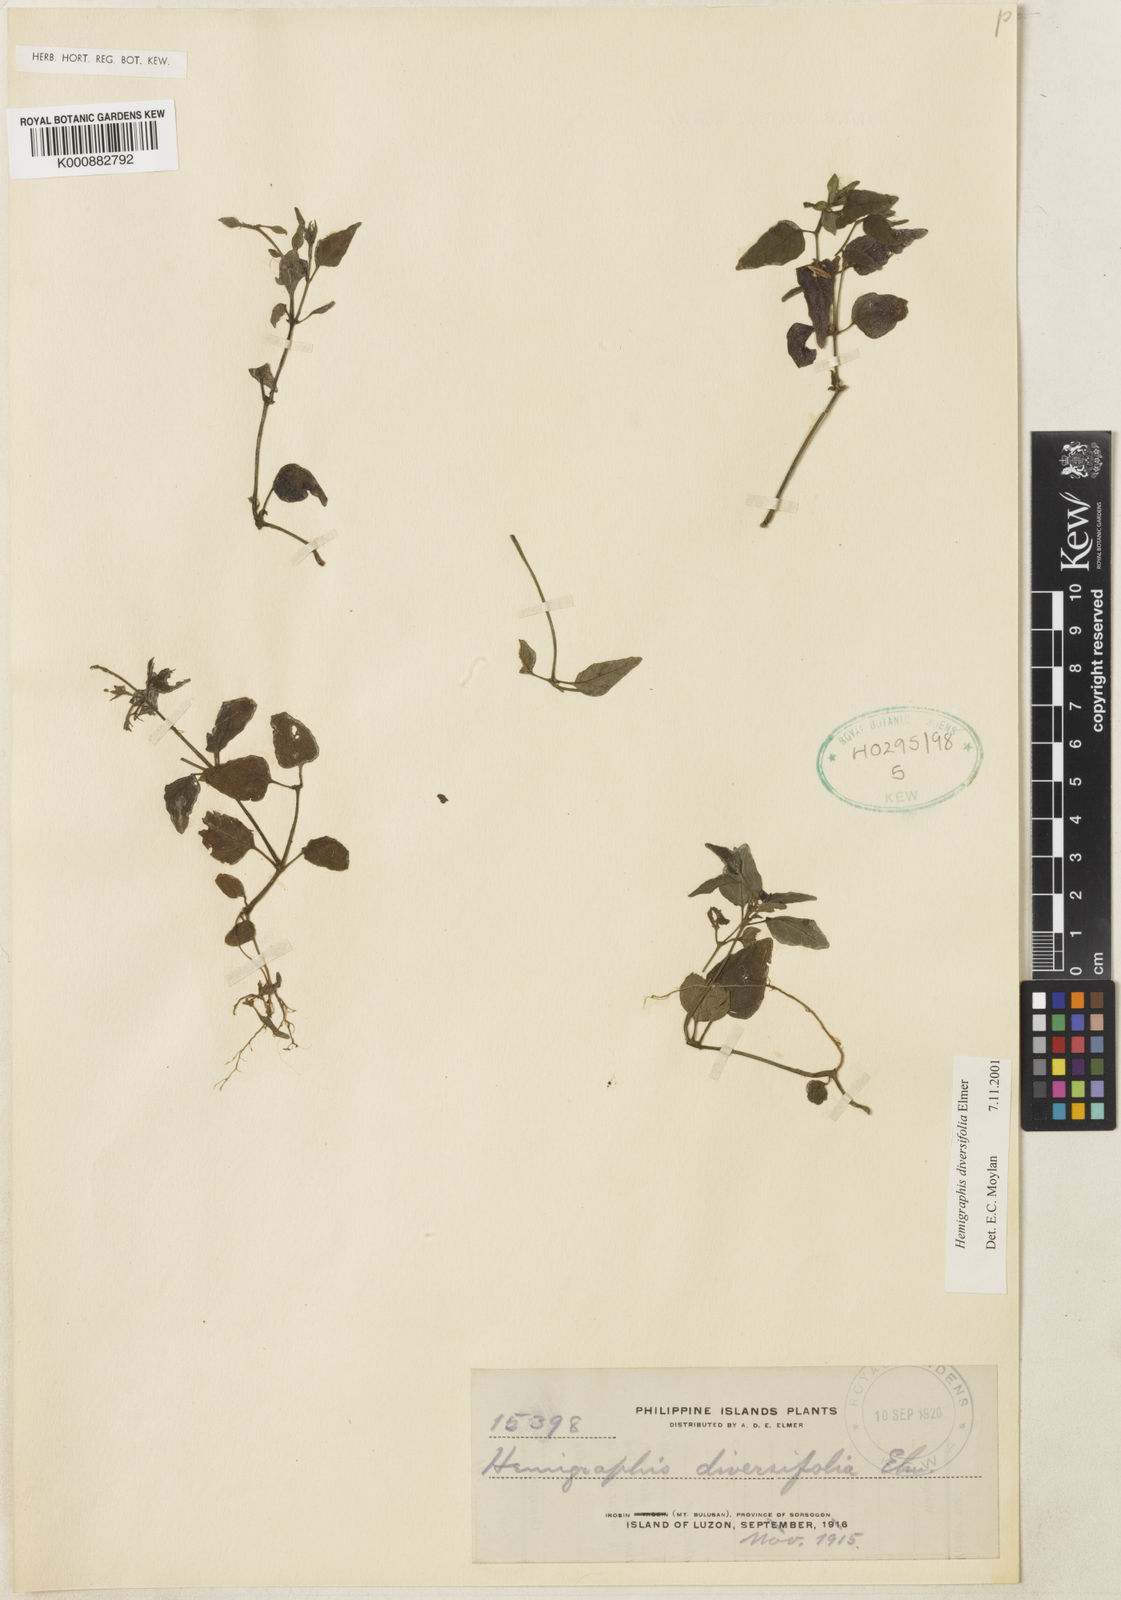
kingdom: Plantae
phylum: Tracheophyta
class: Magnoliopsida
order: Lamiales
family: Acanthaceae
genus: Strobilanthes
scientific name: Strobilanthes diversifolia
